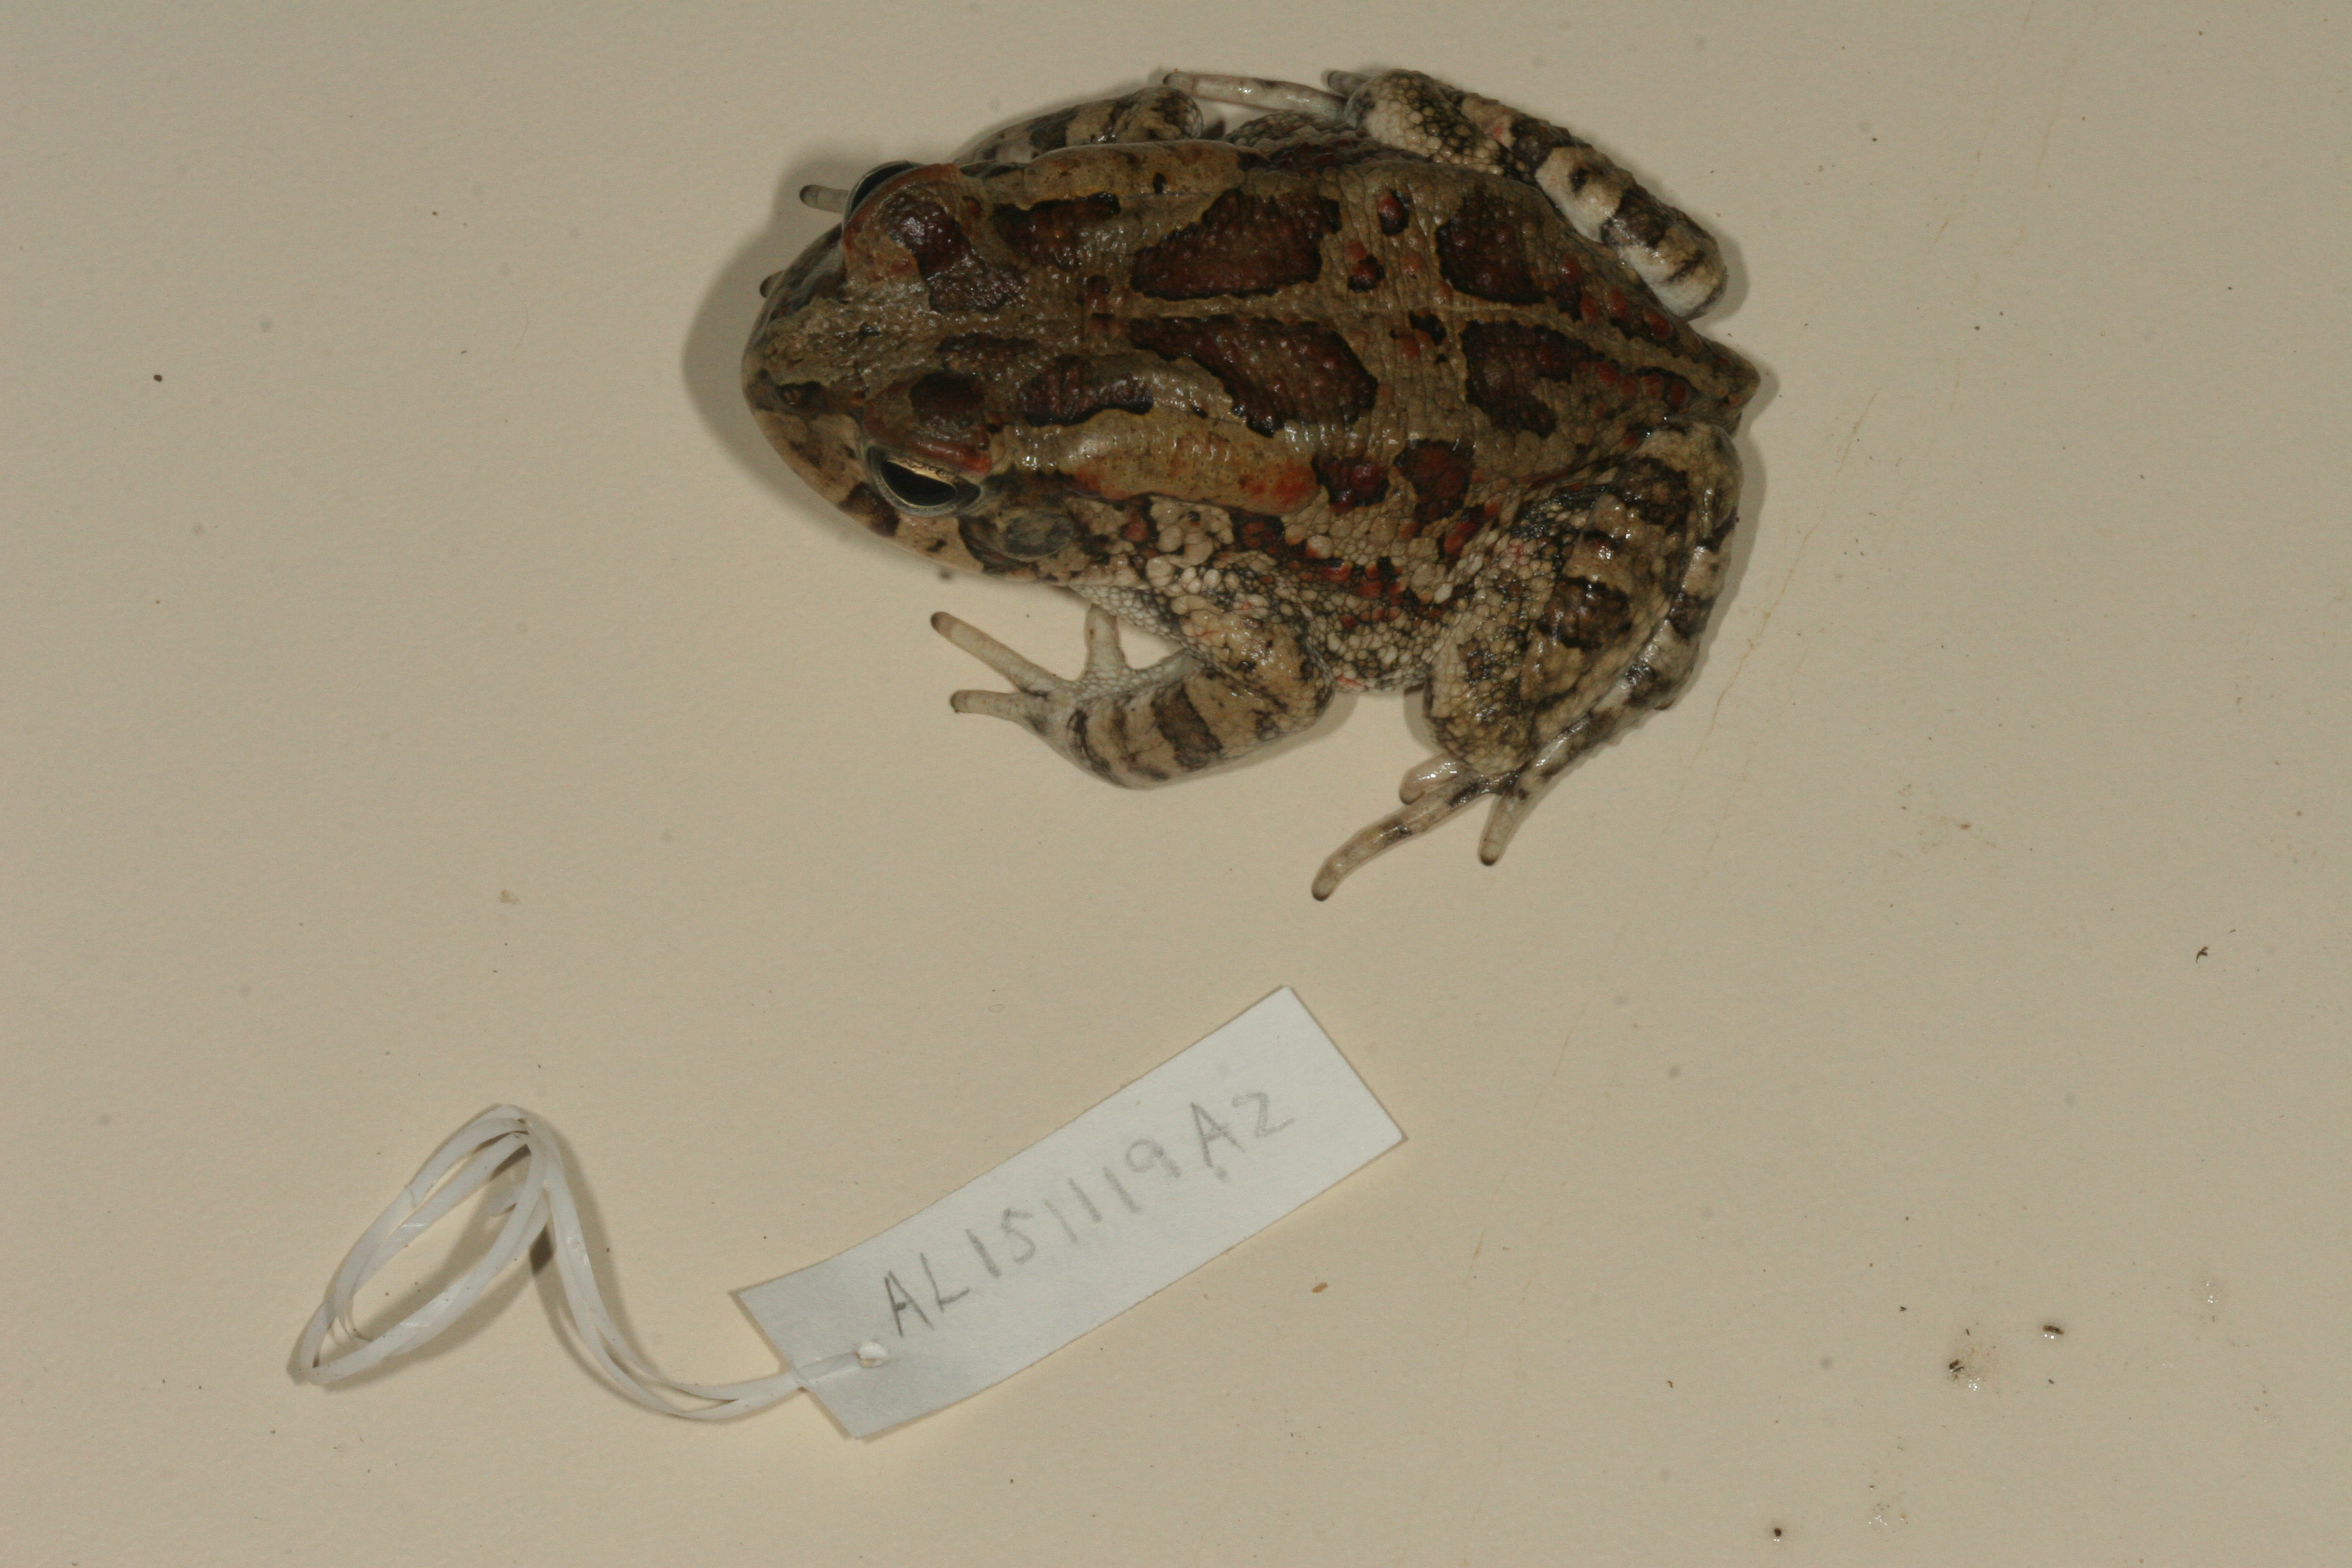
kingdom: Animalia
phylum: Chordata
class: Amphibia
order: Anura
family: Bufonidae
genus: Sclerophrys
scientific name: Sclerophrys garmani
